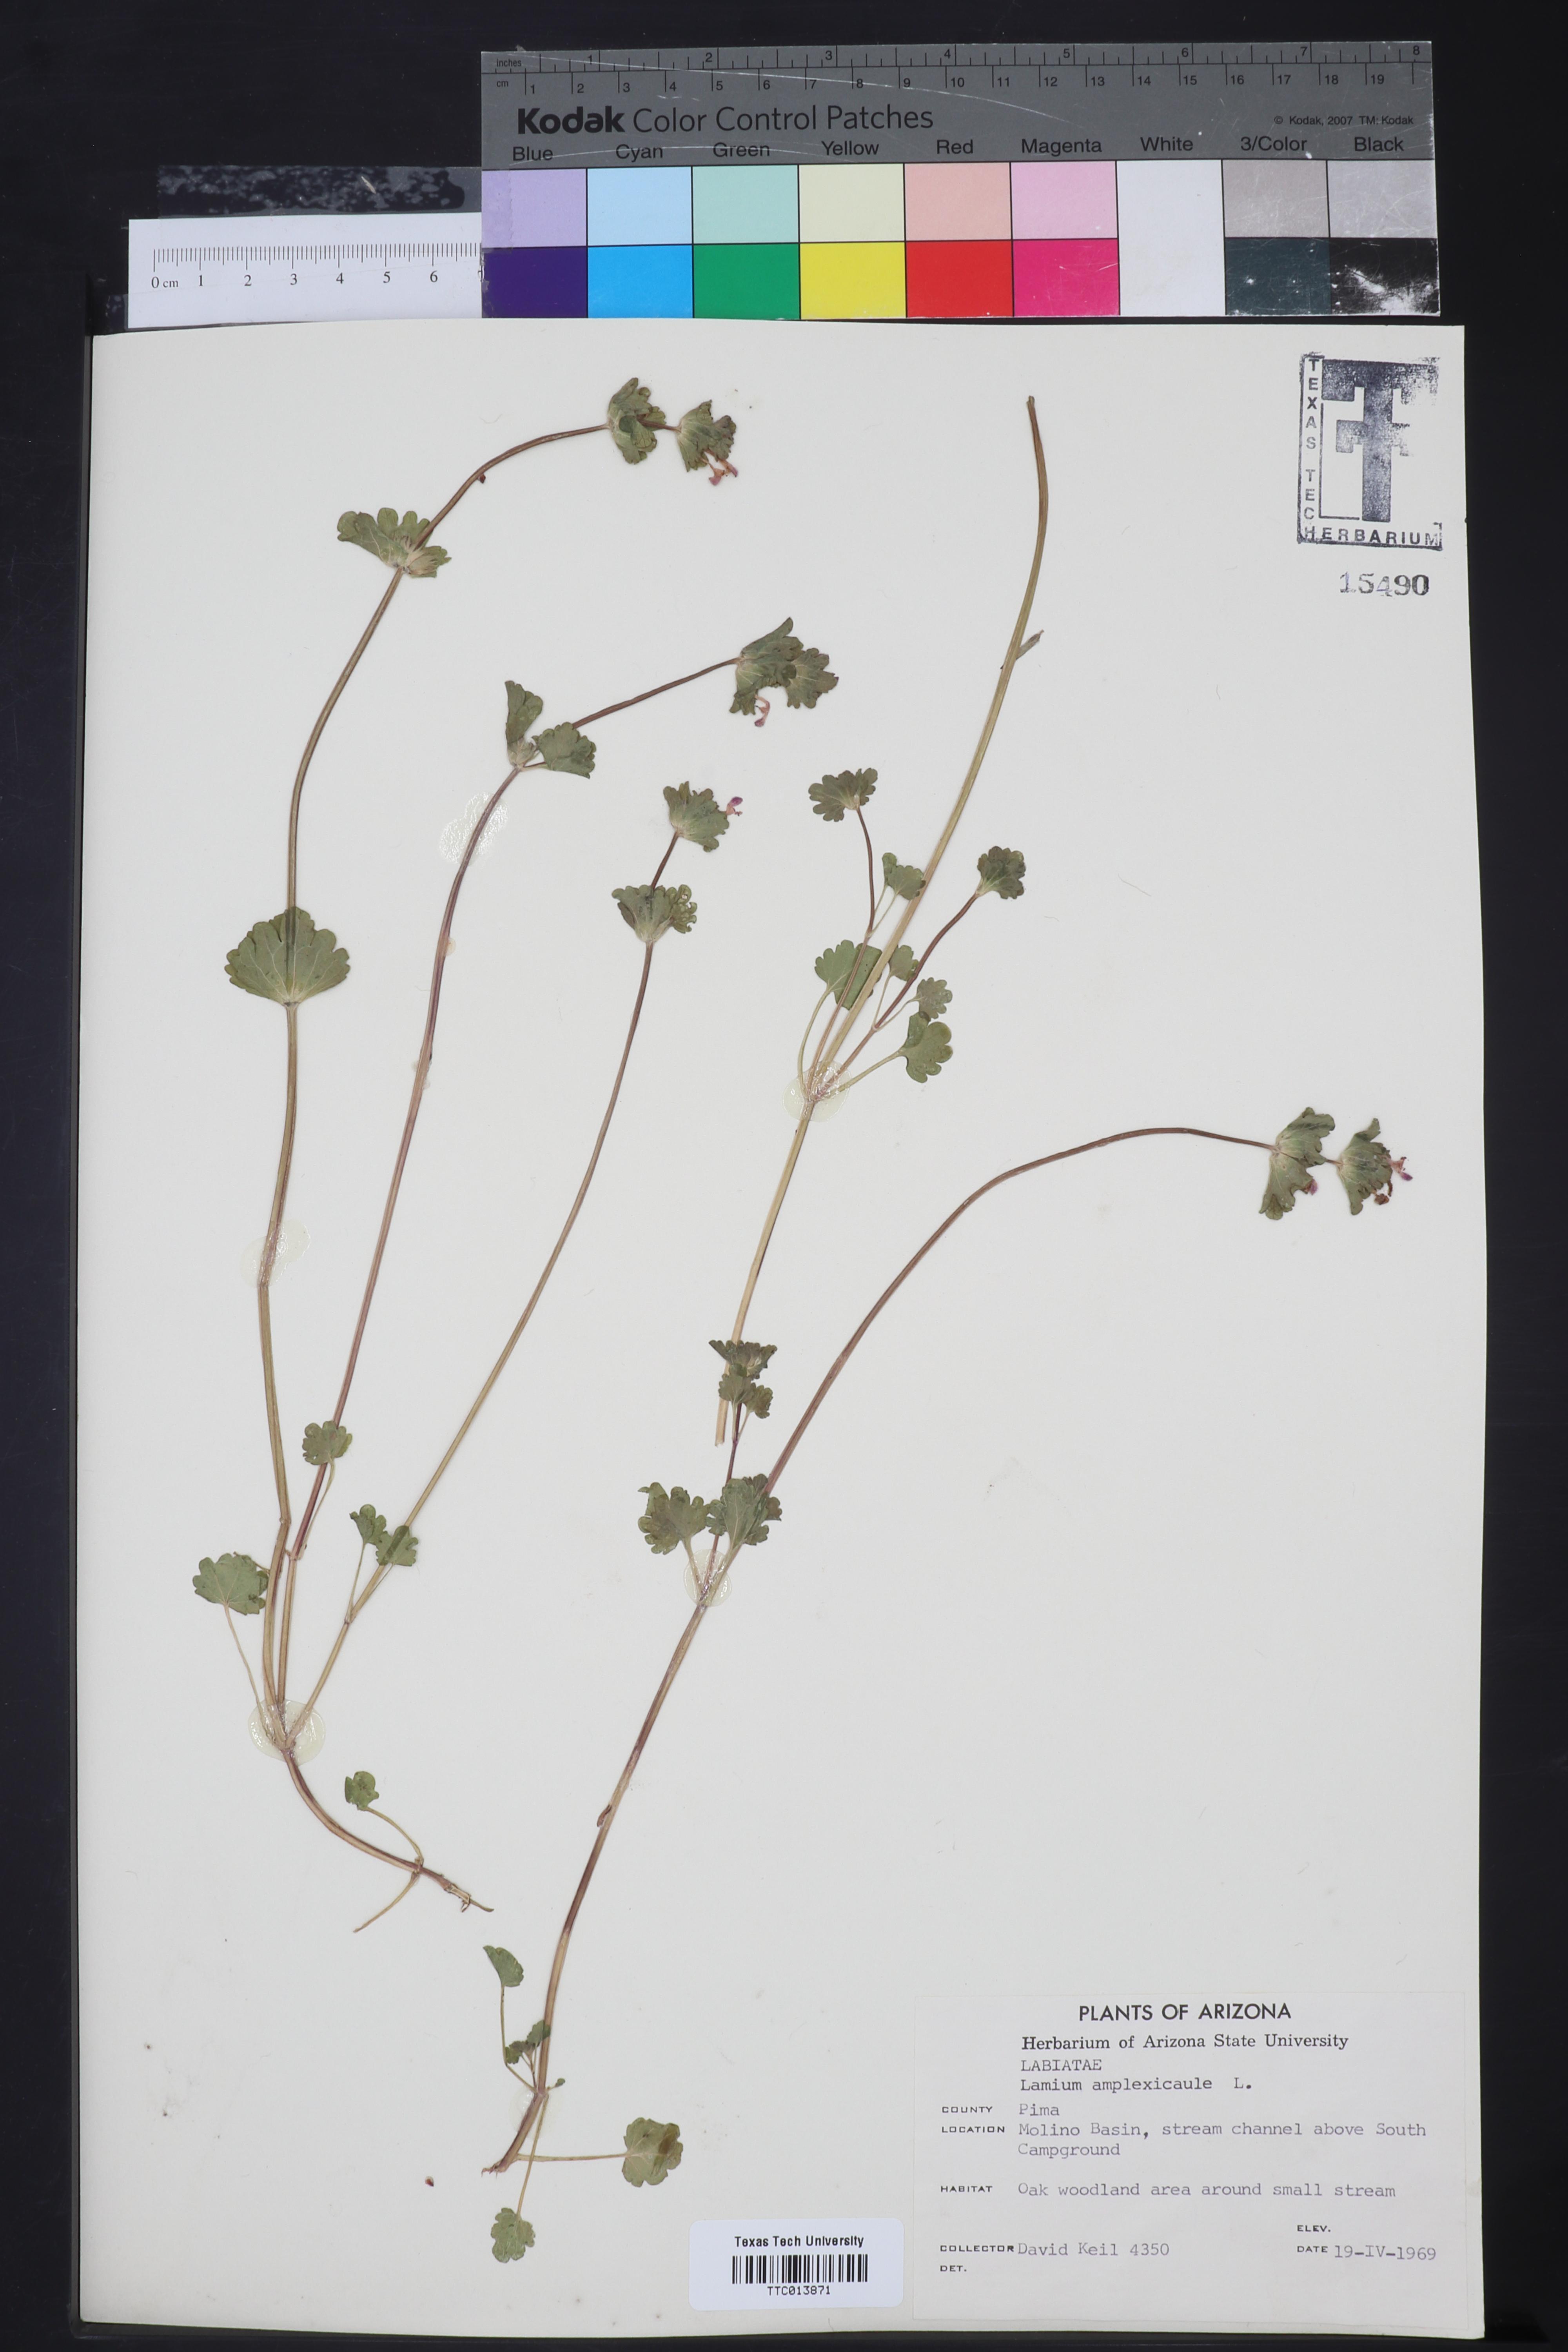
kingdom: Plantae
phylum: Tracheophyta
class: Magnoliopsida
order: Lamiales
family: Lamiaceae
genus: Lamium
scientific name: Lamium amplexicaule
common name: Henbit dead-nettle
